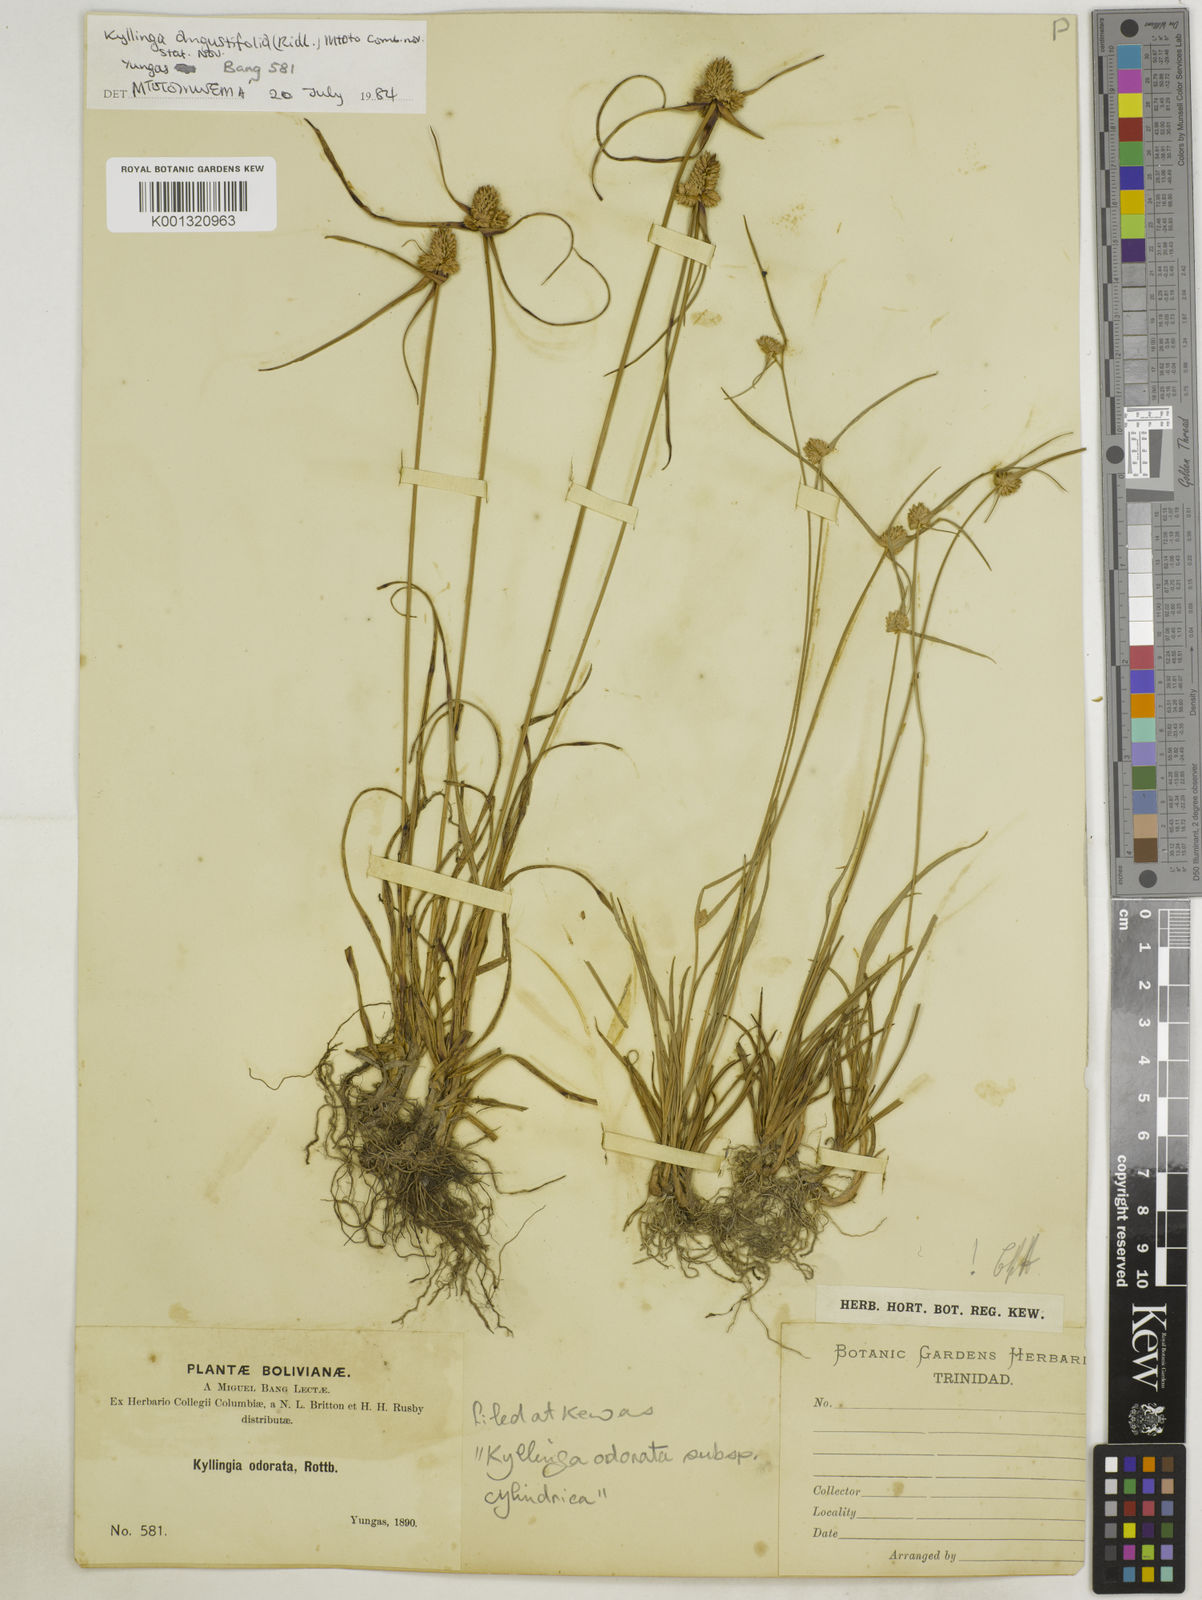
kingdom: Plantae
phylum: Tracheophyta
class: Liliopsida
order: Poales
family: Cyperaceae
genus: Cyperus
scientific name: Cyperus
